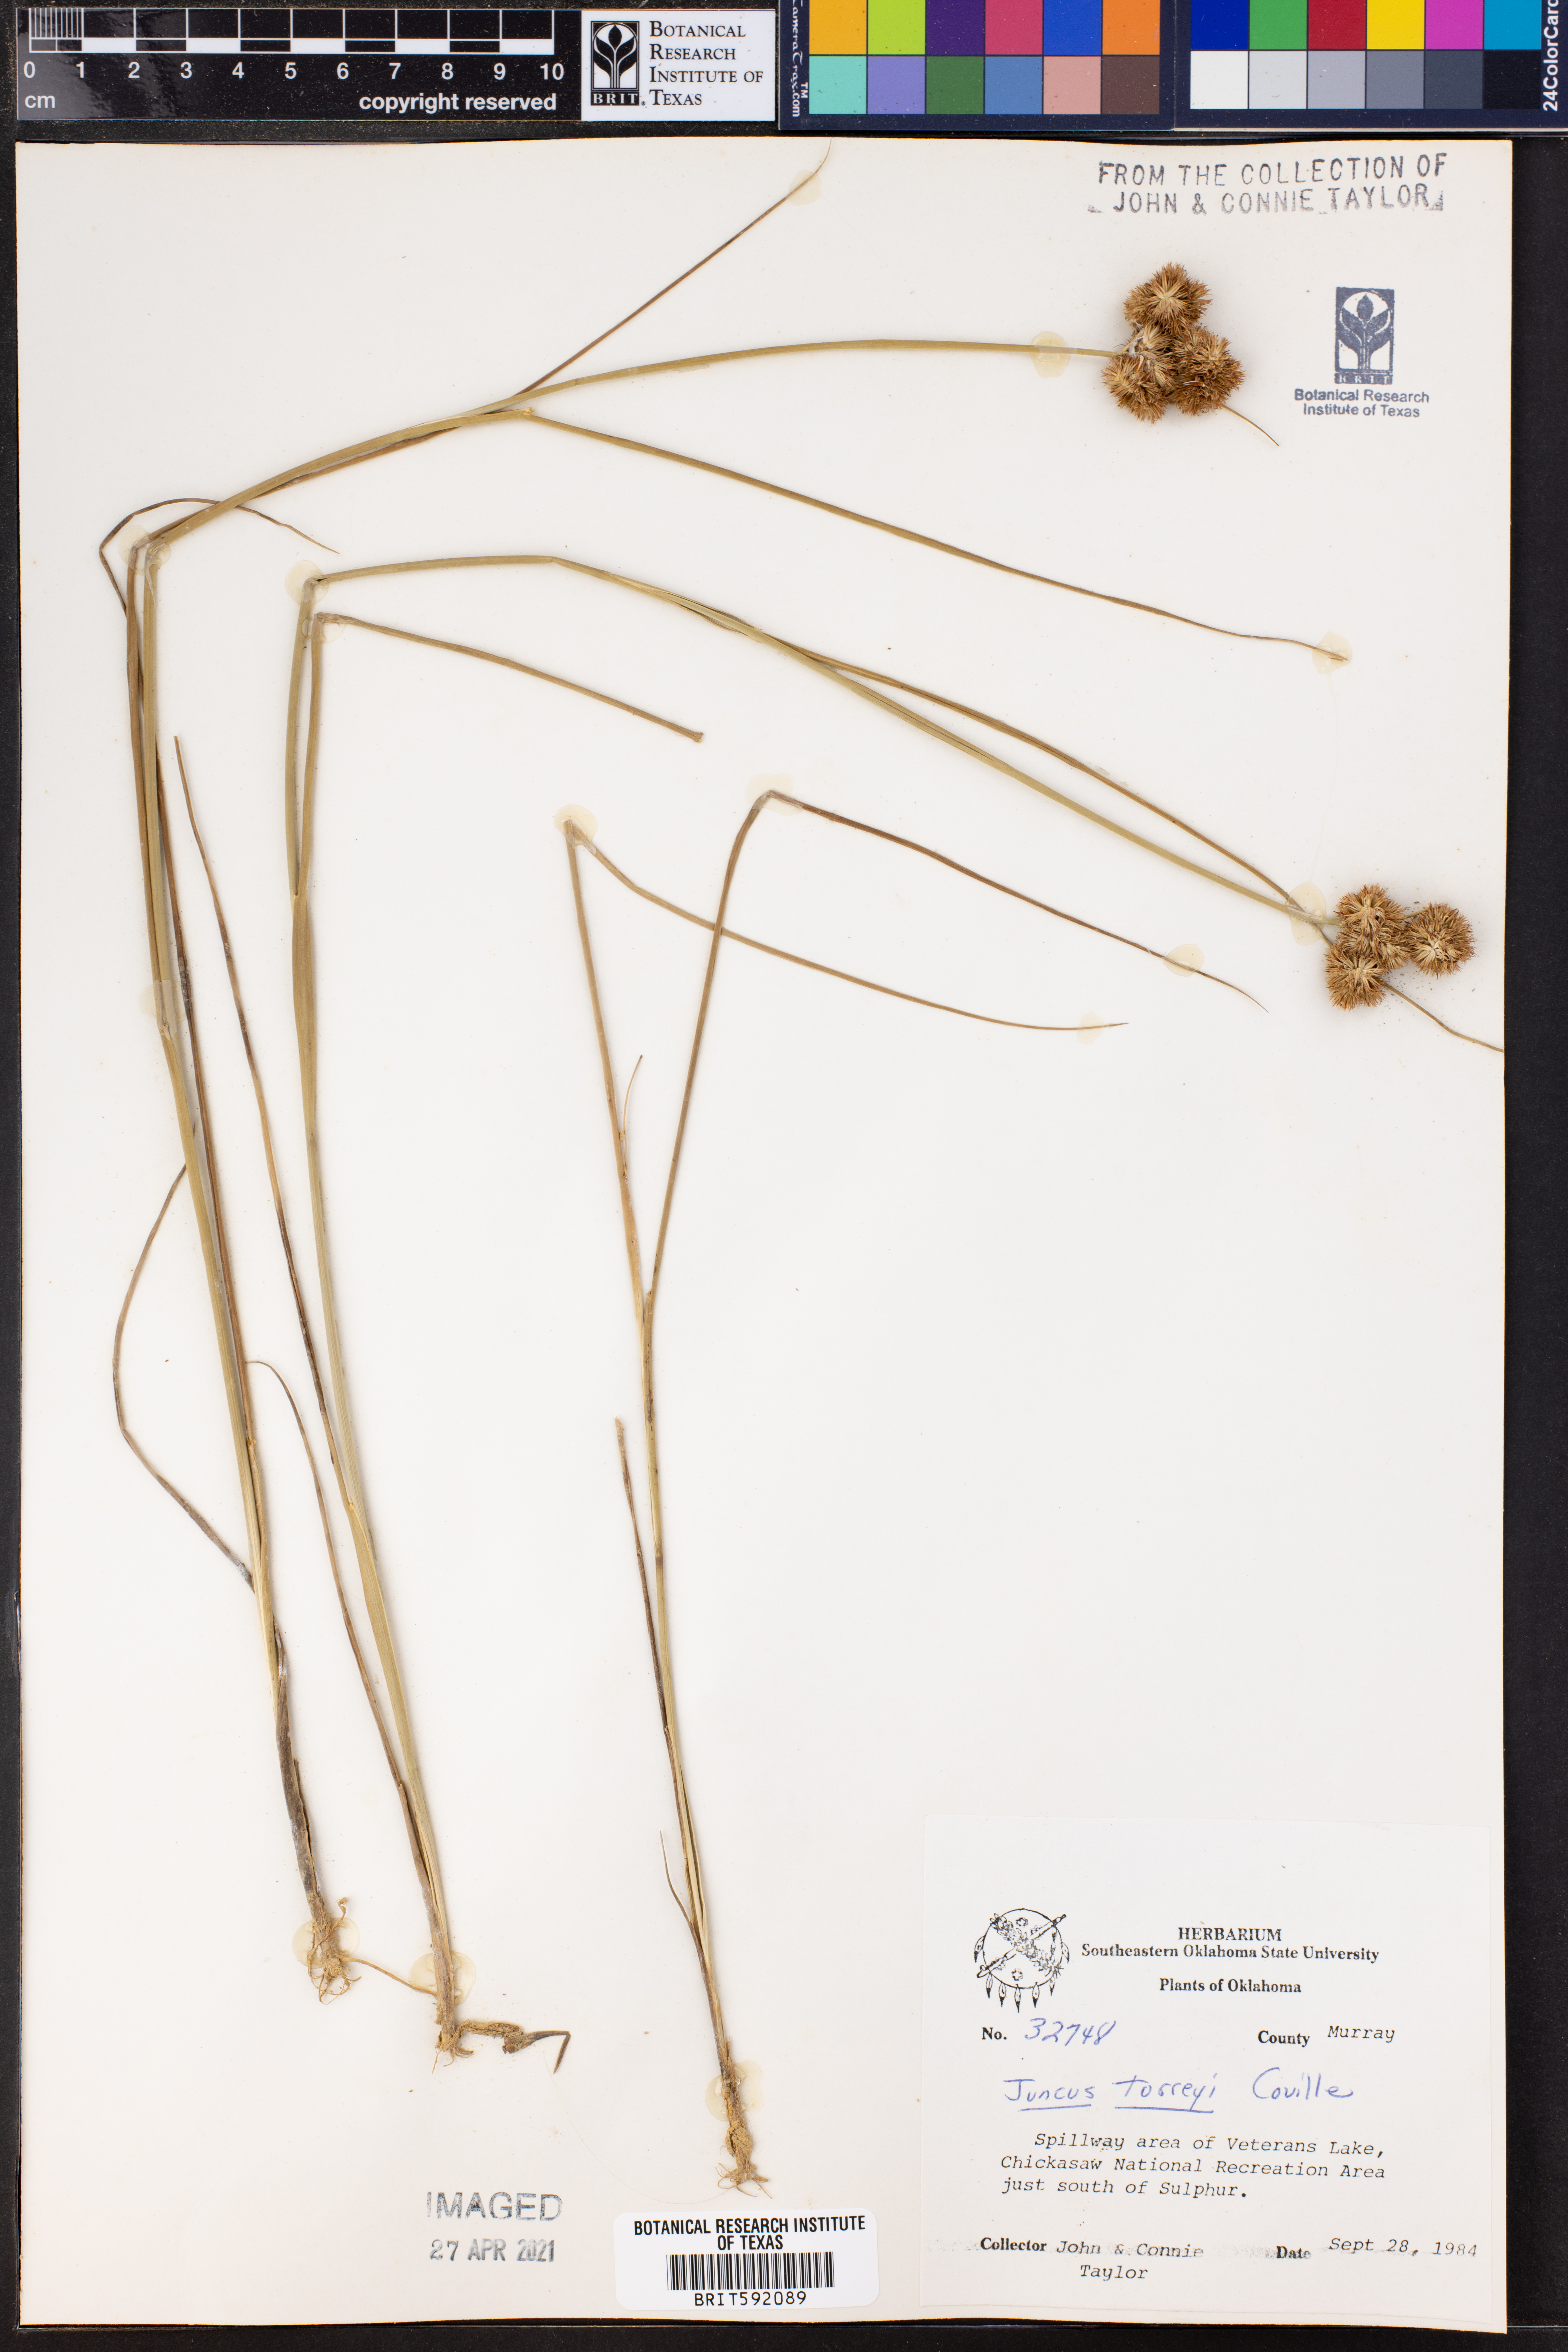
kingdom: Plantae
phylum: Tracheophyta
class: Liliopsida
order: Poales
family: Juncaceae
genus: Juncus
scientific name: Juncus torreyi
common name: Torrey's rush
